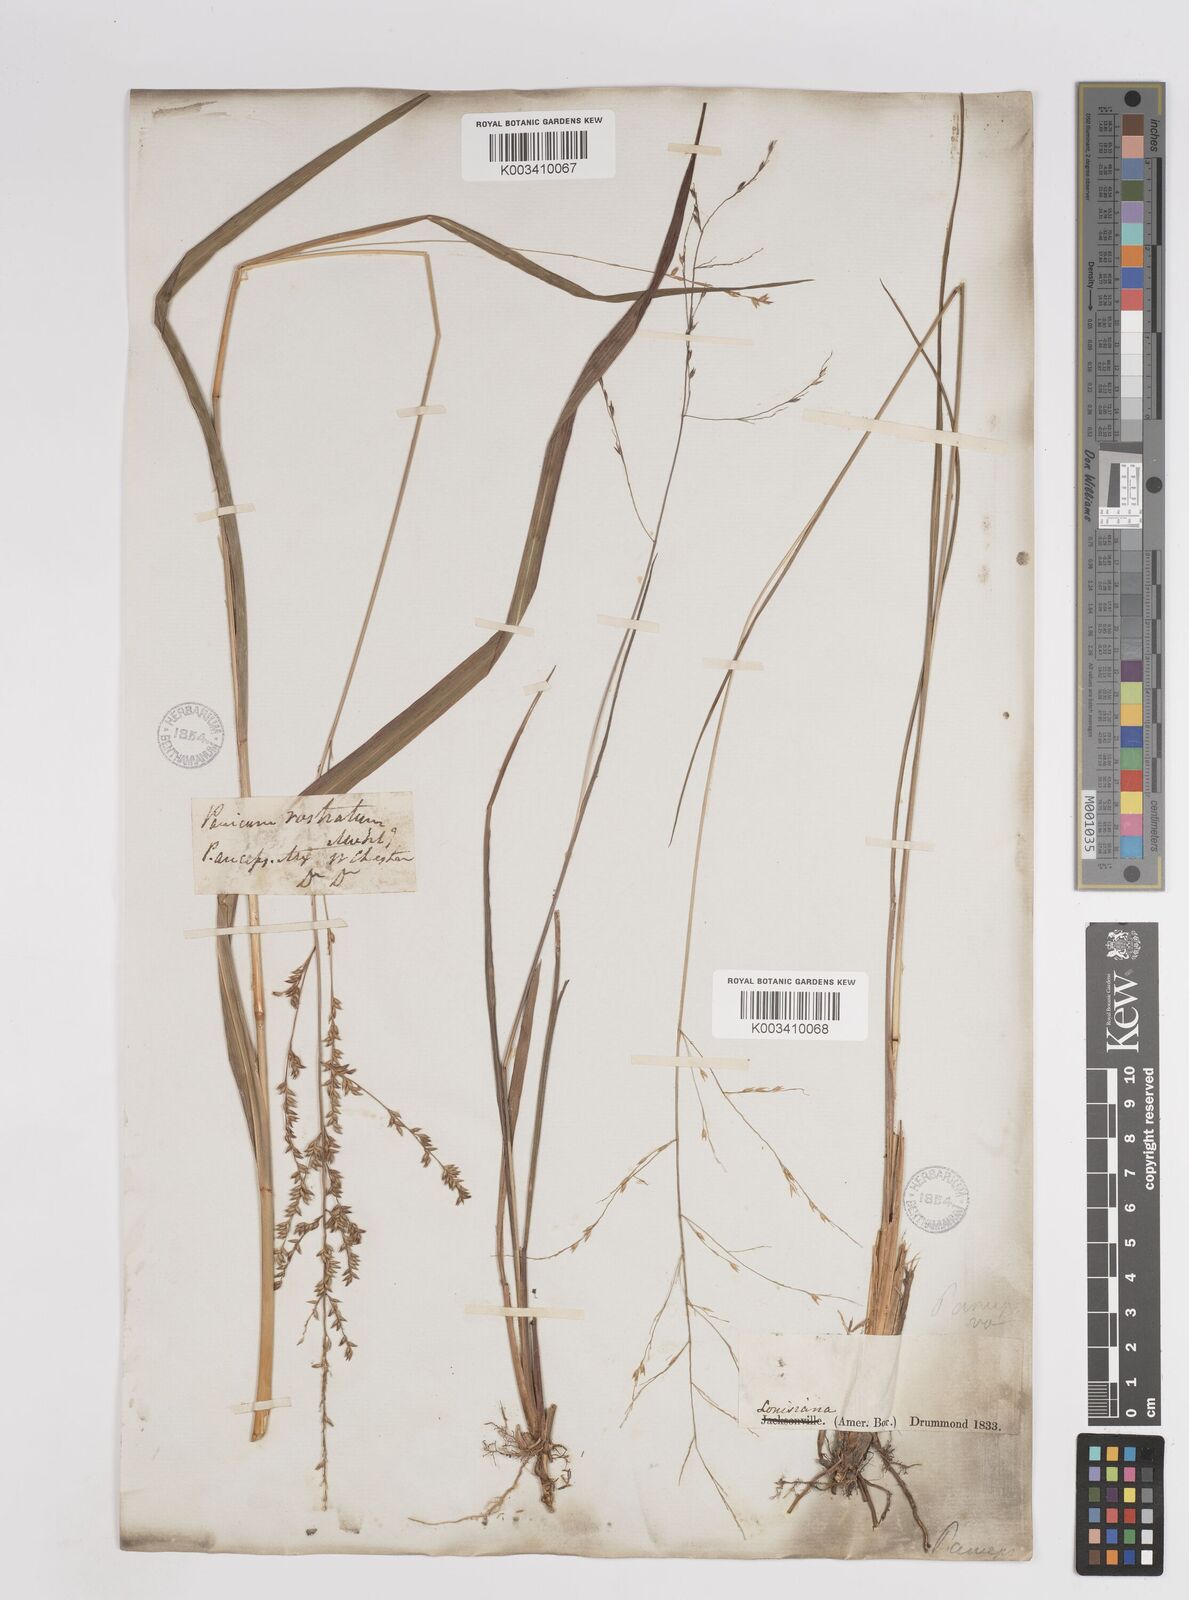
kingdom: Plantae
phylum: Tracheophyta
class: Liliopsida
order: Poales
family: Poaceae
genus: Coleataenia
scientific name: Coleataenia anceps
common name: Beaked panic grass
